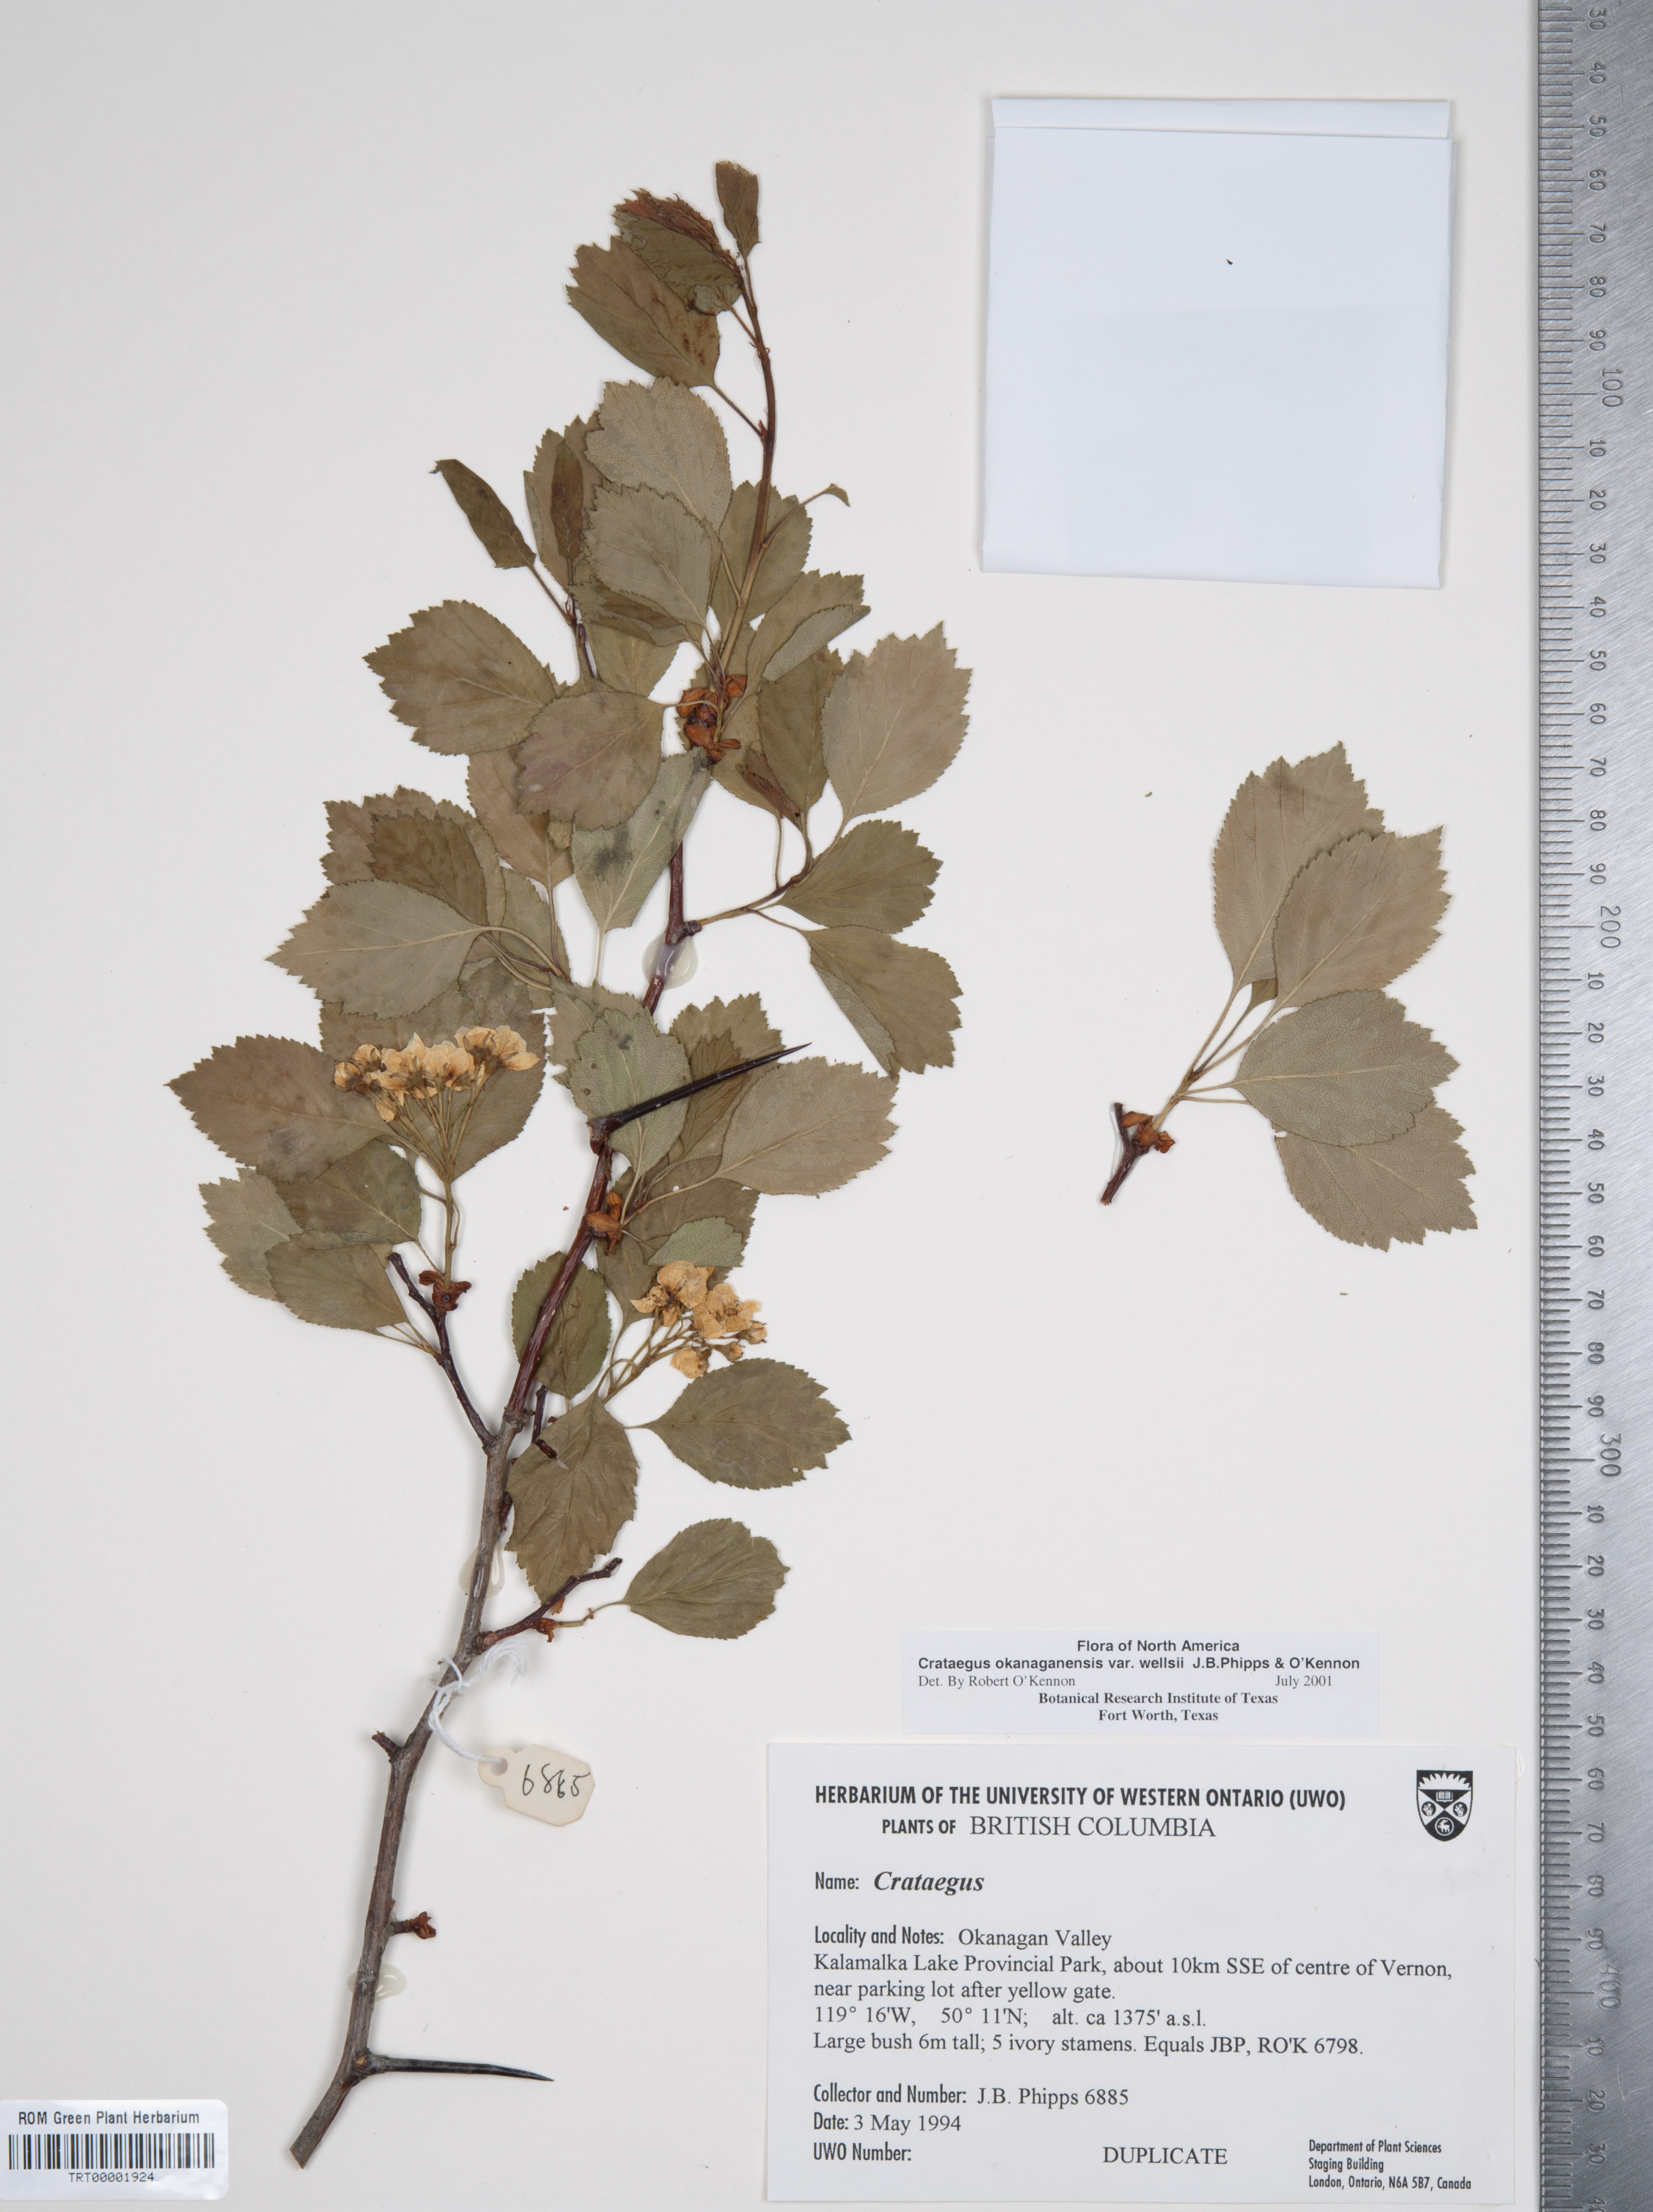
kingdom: Plantae
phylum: Tracheophyta
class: Magnoliopsida
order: Rosales
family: Rosaceae
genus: Crataegus
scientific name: Crataegus okanaganensis
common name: Okanagan valley hawthorn
